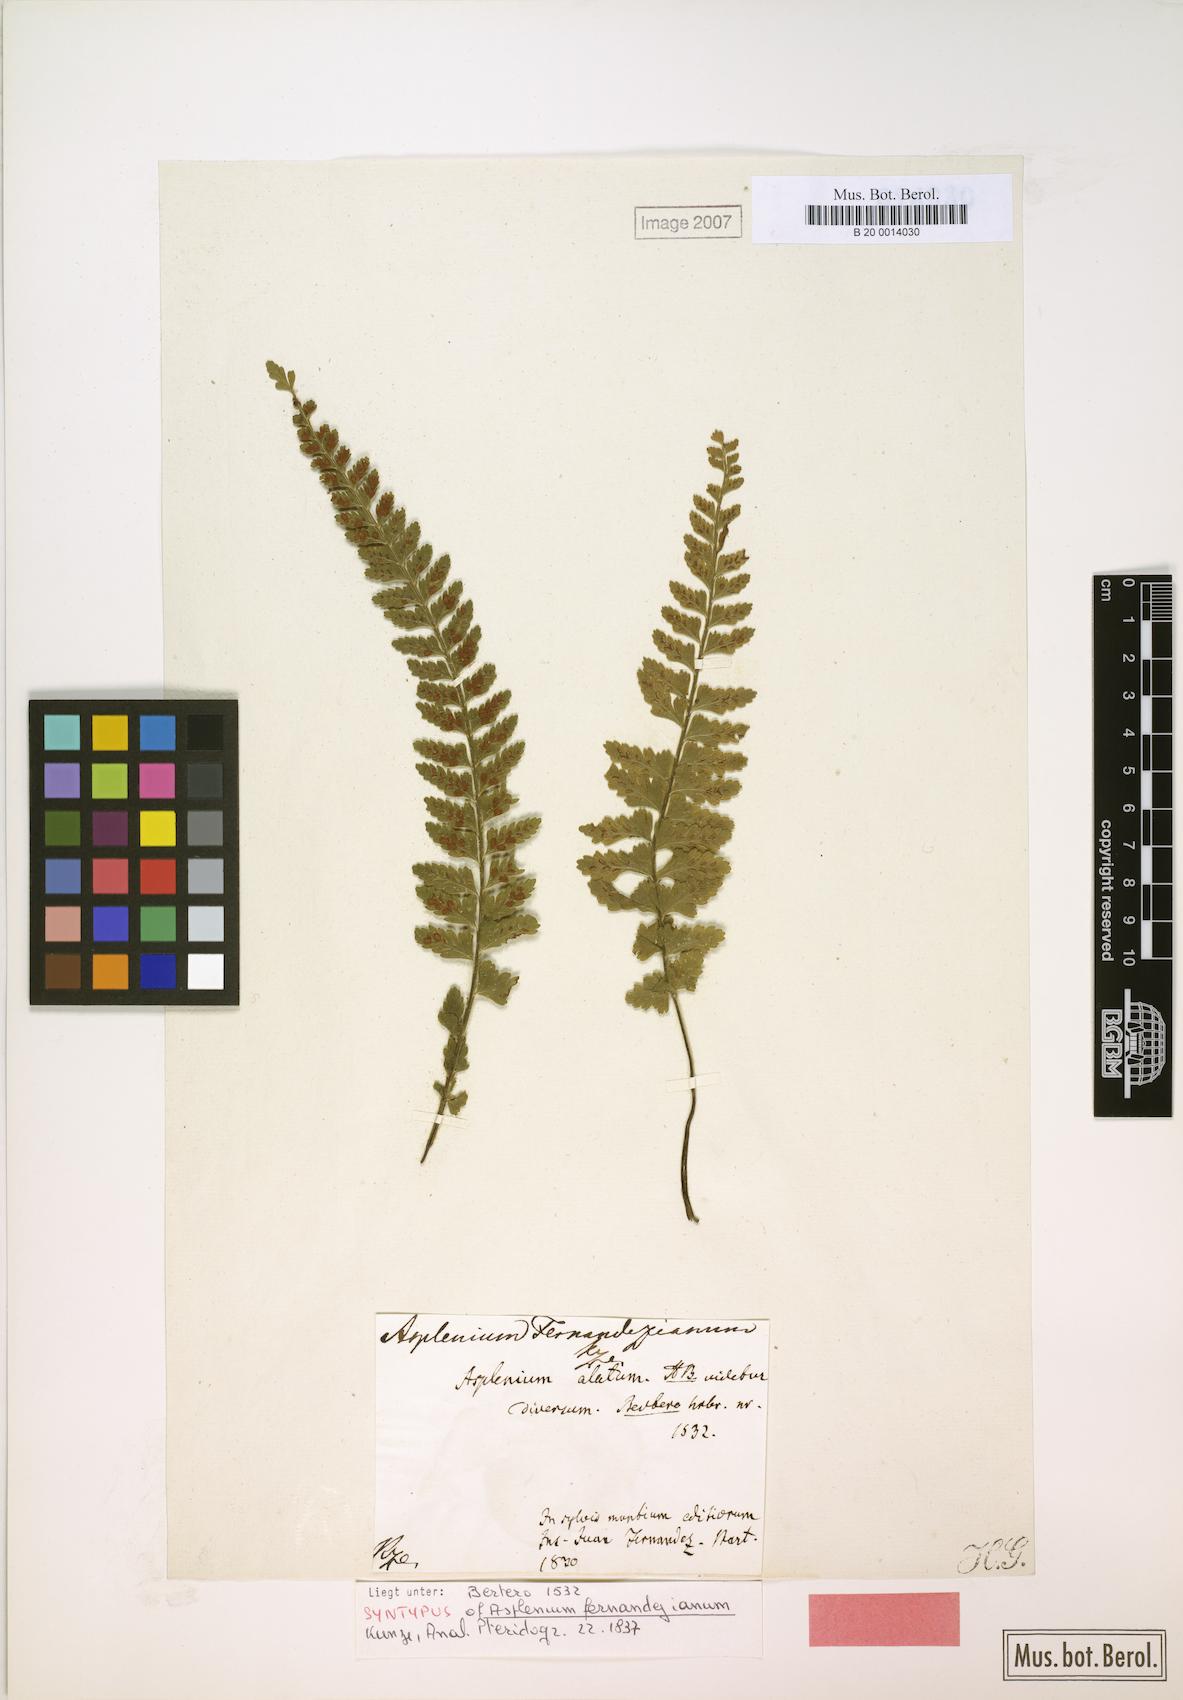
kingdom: Plantae
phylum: Tracheophyta
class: Polypodiopsida
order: Polypodiales
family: Aspleniaceae
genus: Asplenium
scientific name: Asplenium stellatum
